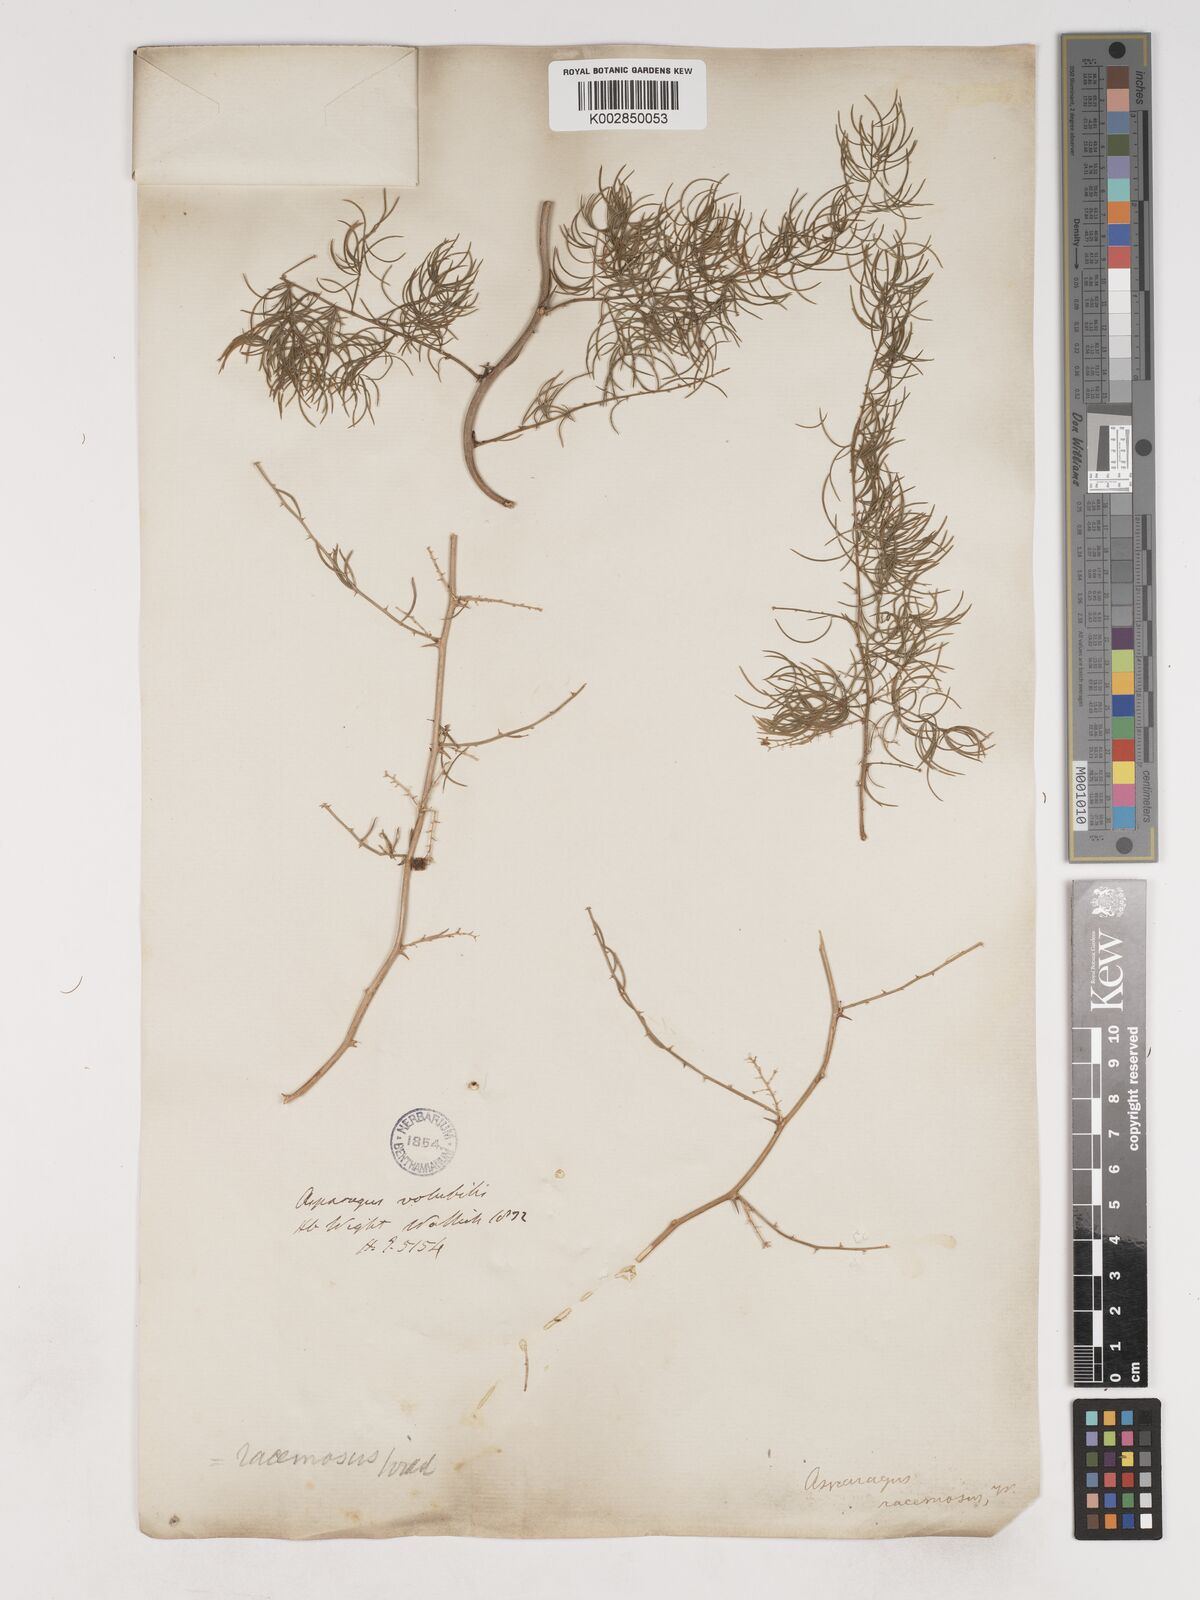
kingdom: Plantae
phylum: Tracheophyta
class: Liliopsida
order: Asparagales
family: Asparagaceae
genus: Asparagus
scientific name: Asparagus racemosus
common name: Asparagus-fern
